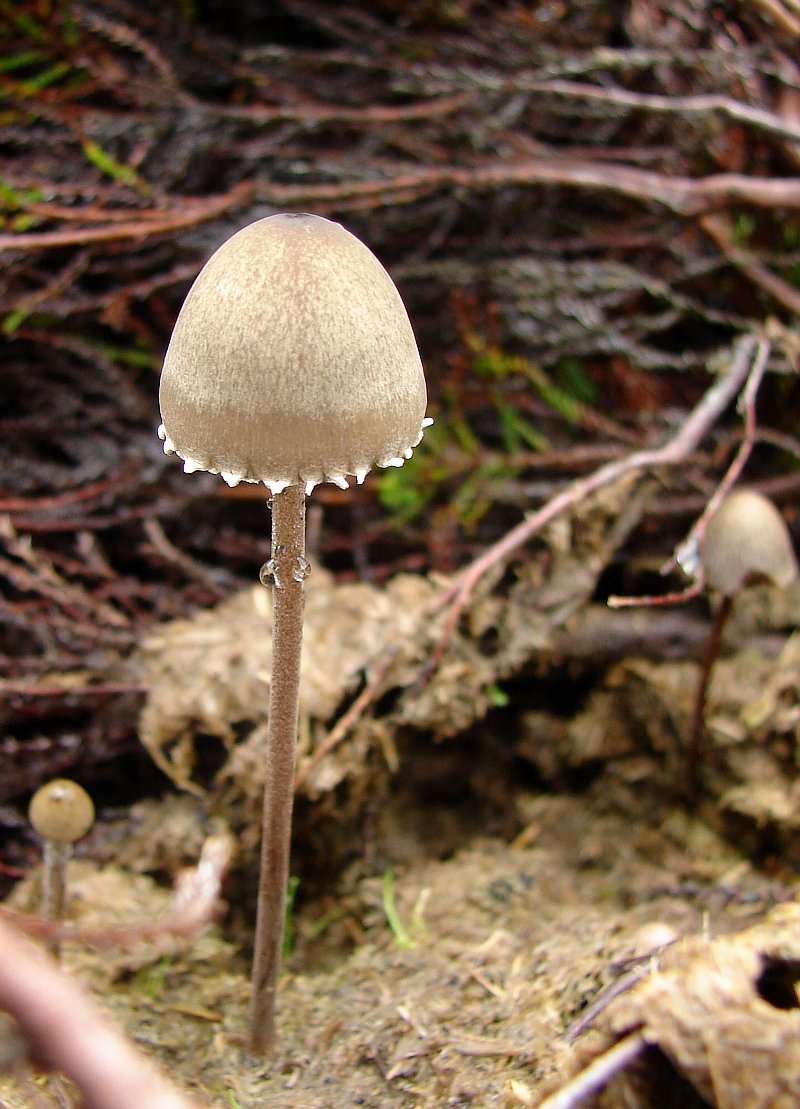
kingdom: Fungi
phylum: Basidiomycota
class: Agaricomycetes
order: Agaricales
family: Bolbitiaceae
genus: Panaeolus
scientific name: Panaeolus papilionaceus
